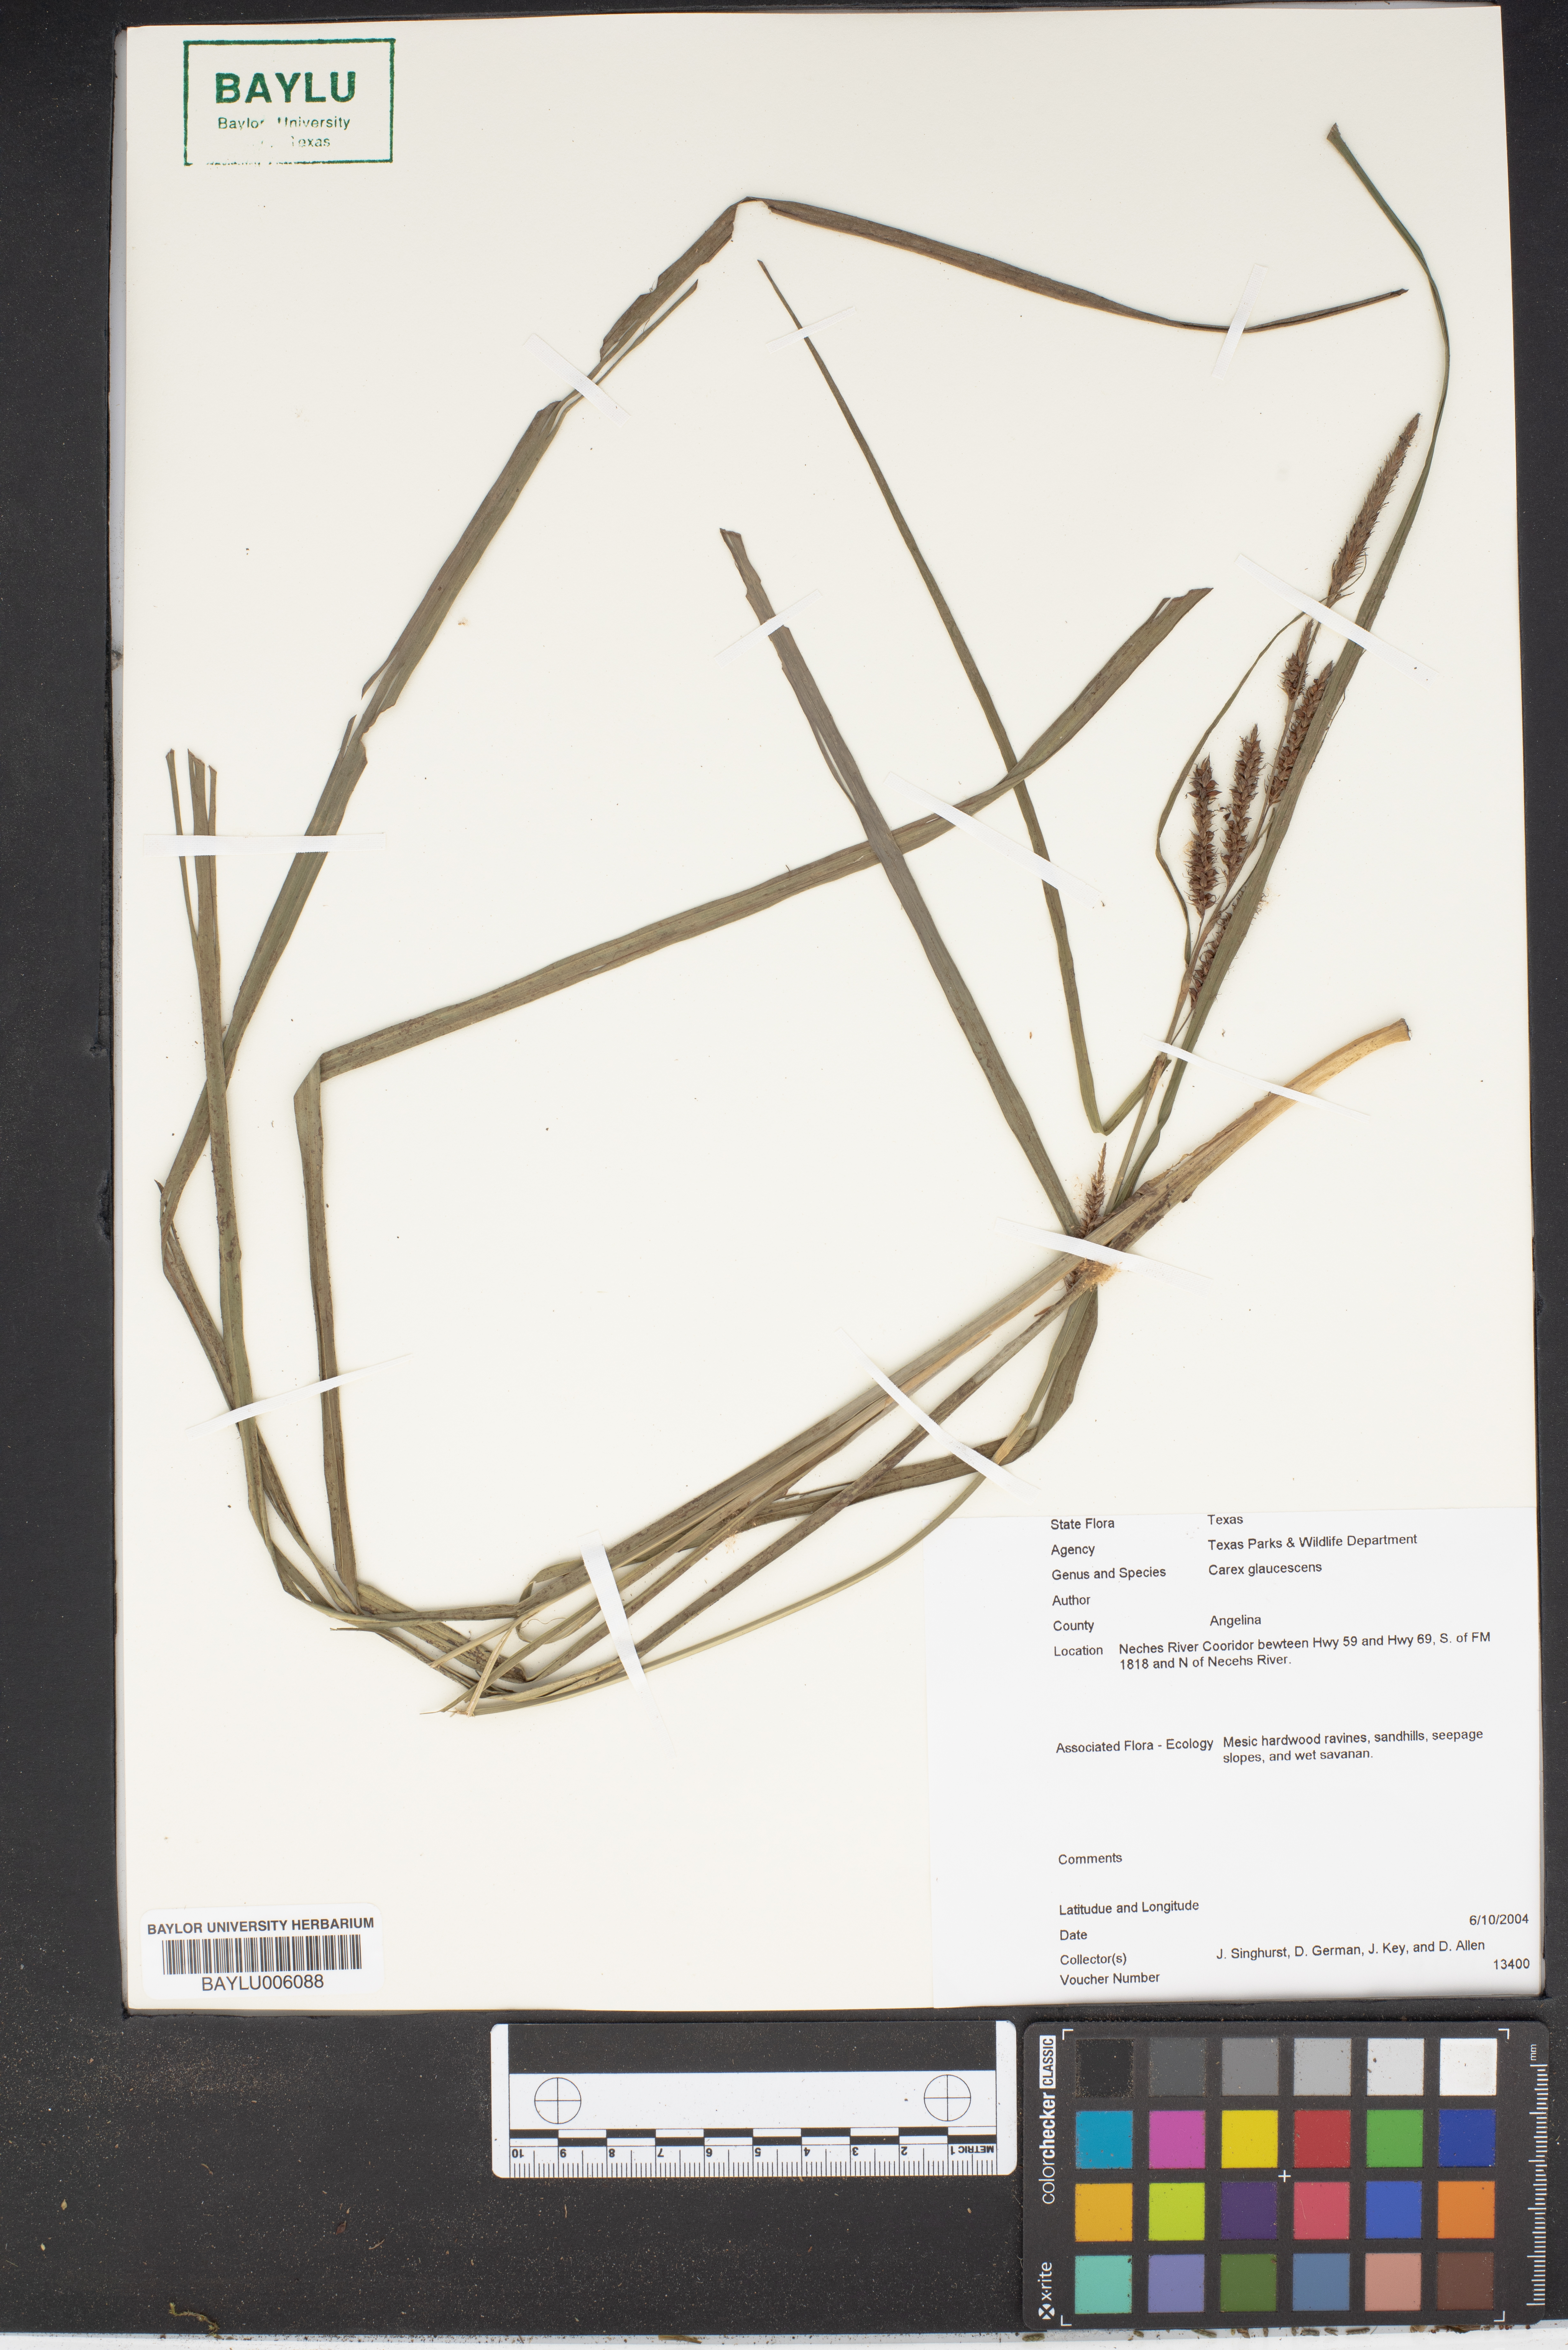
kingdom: Plantae
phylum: Tracheophyta
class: Liliopsida
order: Poales
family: Cyperaceae
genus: Carex
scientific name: Carex glaucescens
